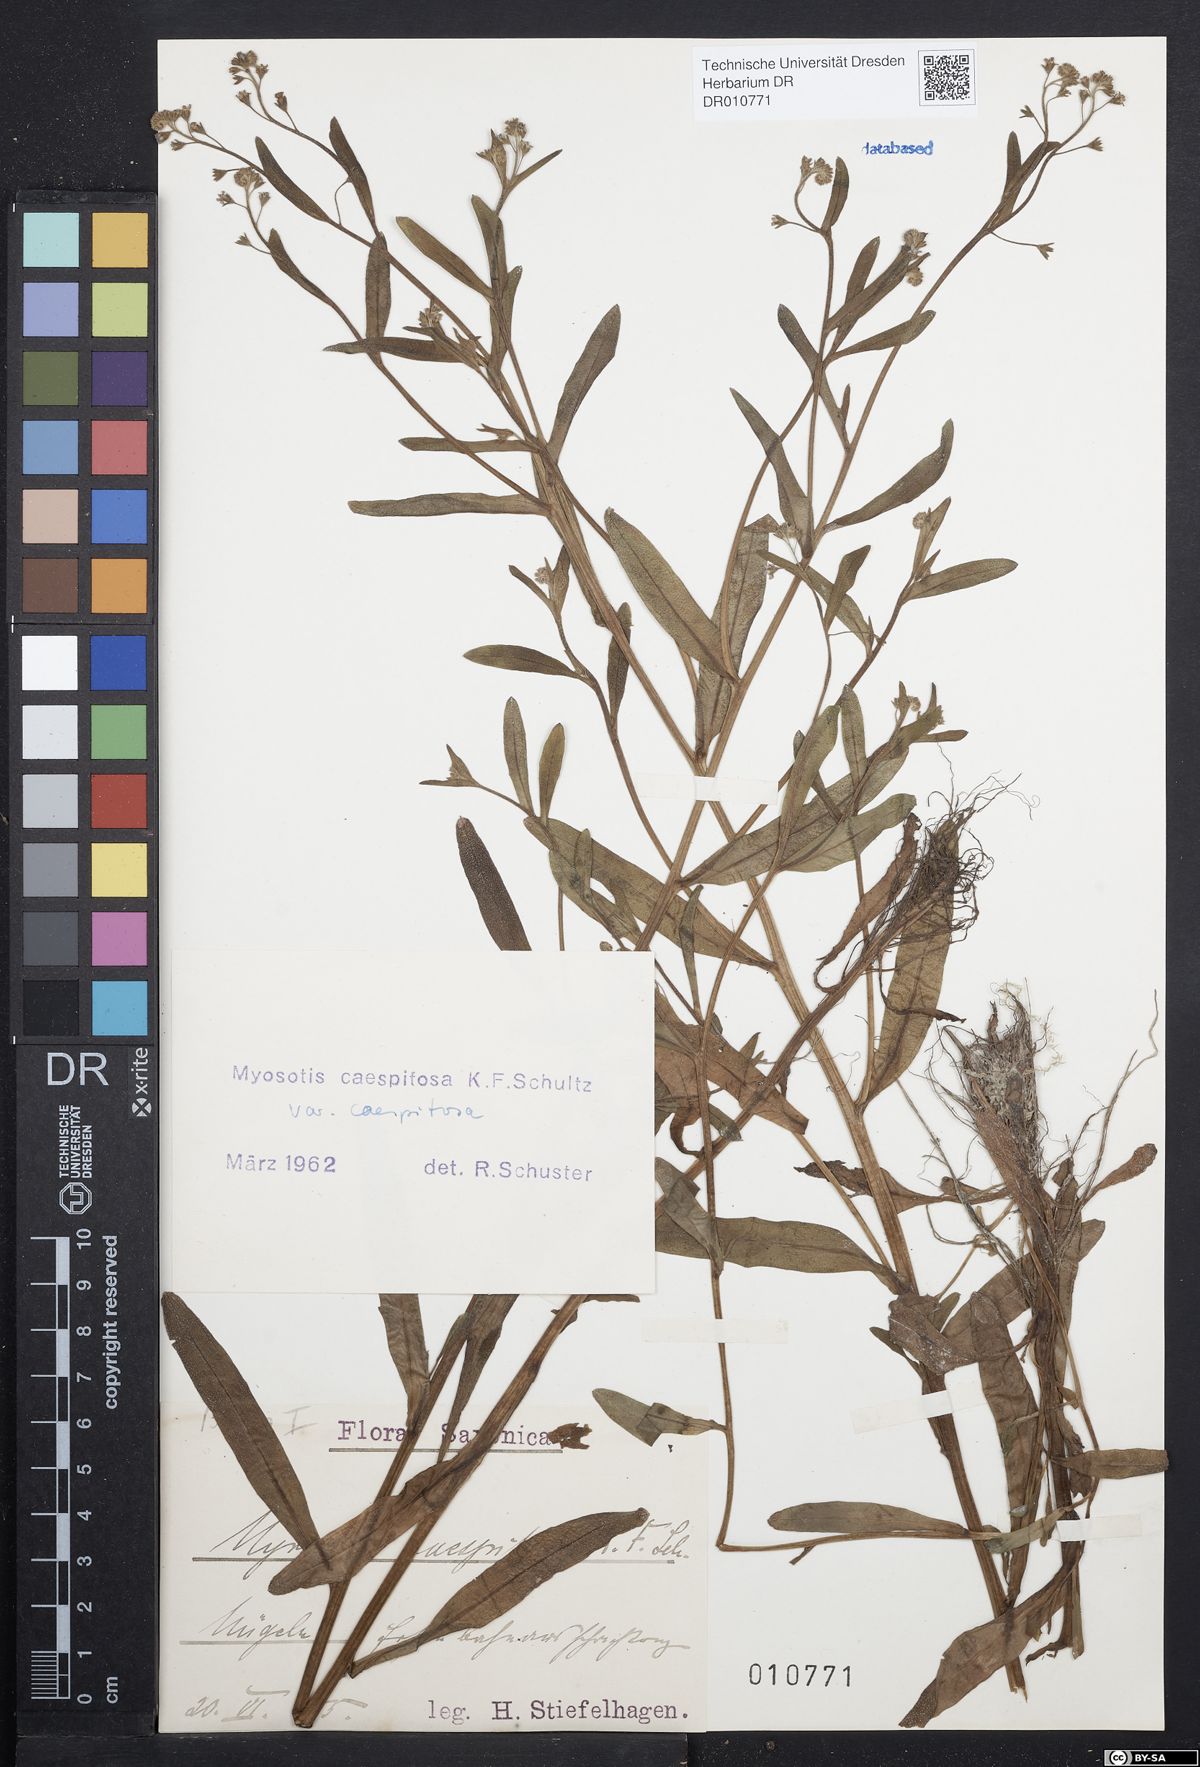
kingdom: Plantae
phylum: Tracheophyta
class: Magnoliopsida
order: Boraginales
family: Boraginaceae
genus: Myosotis
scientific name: Myosotis laxa
